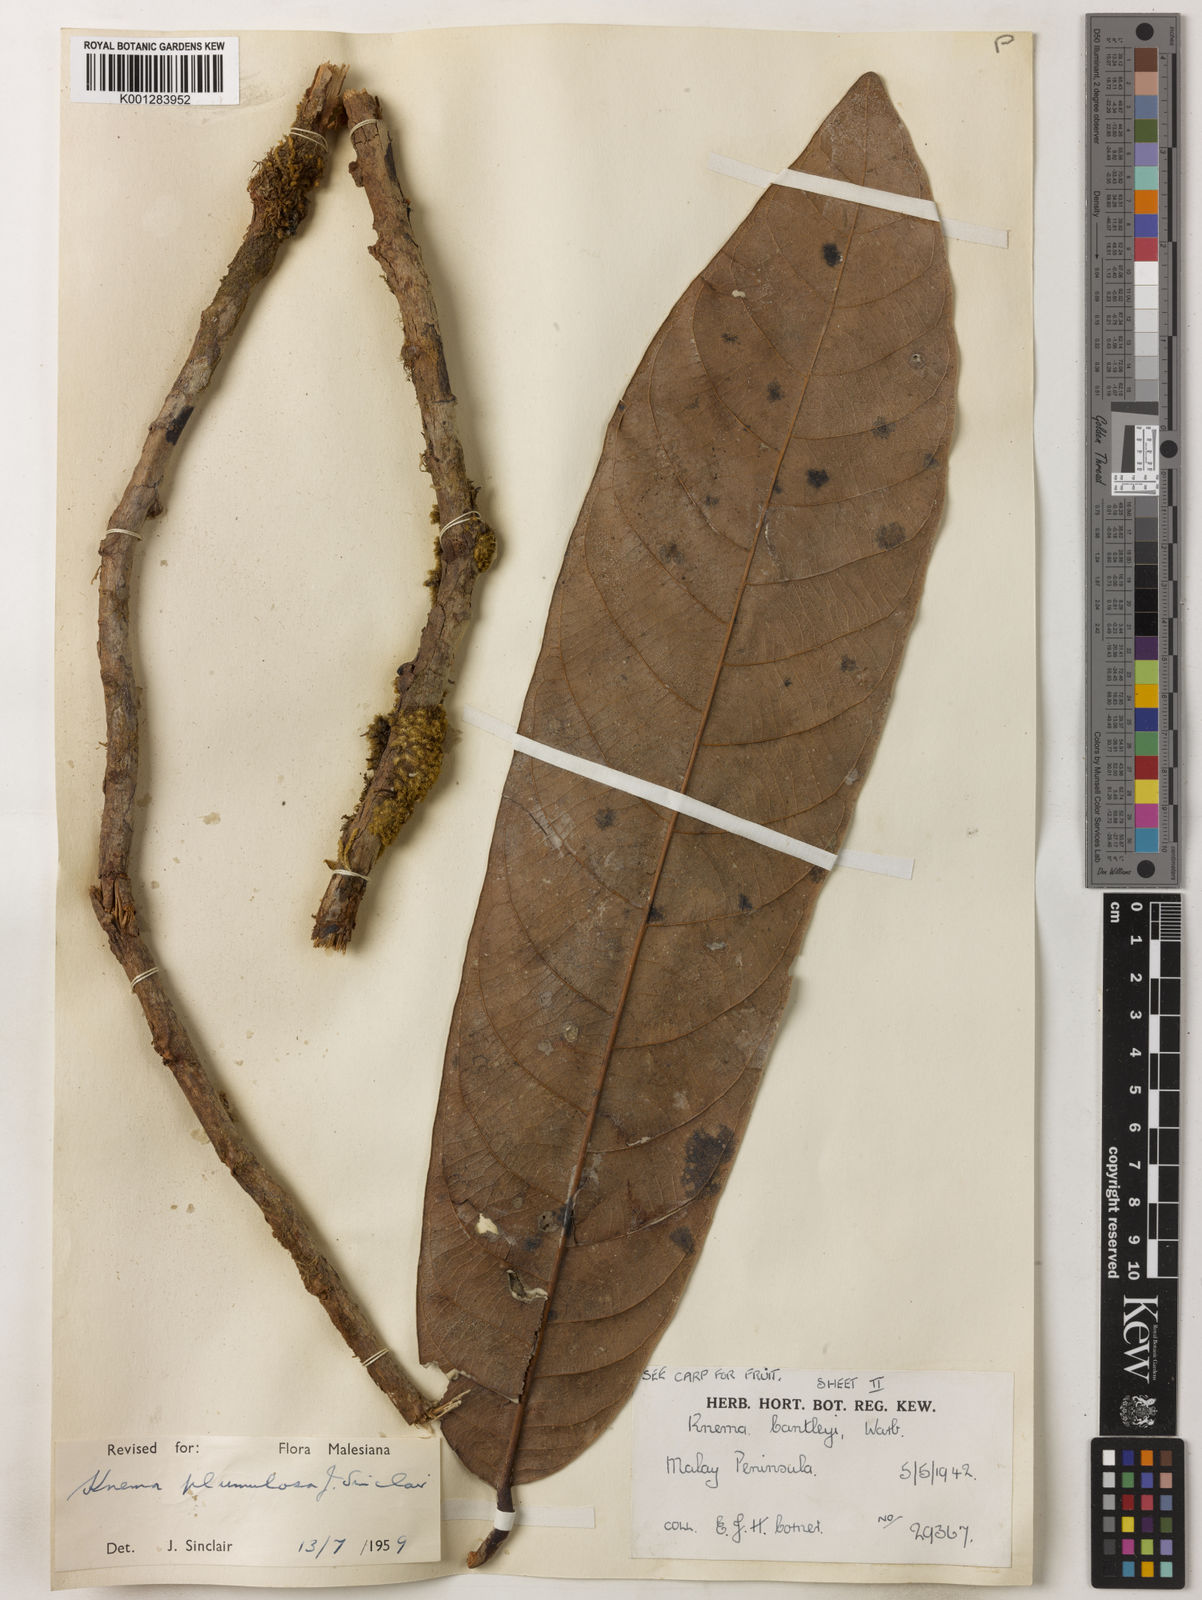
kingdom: Plantae
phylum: Tracheophyta
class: Magnoliopsida
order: Magnoliales
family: Myristicaceae
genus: Knema
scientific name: Knema plumulosa
